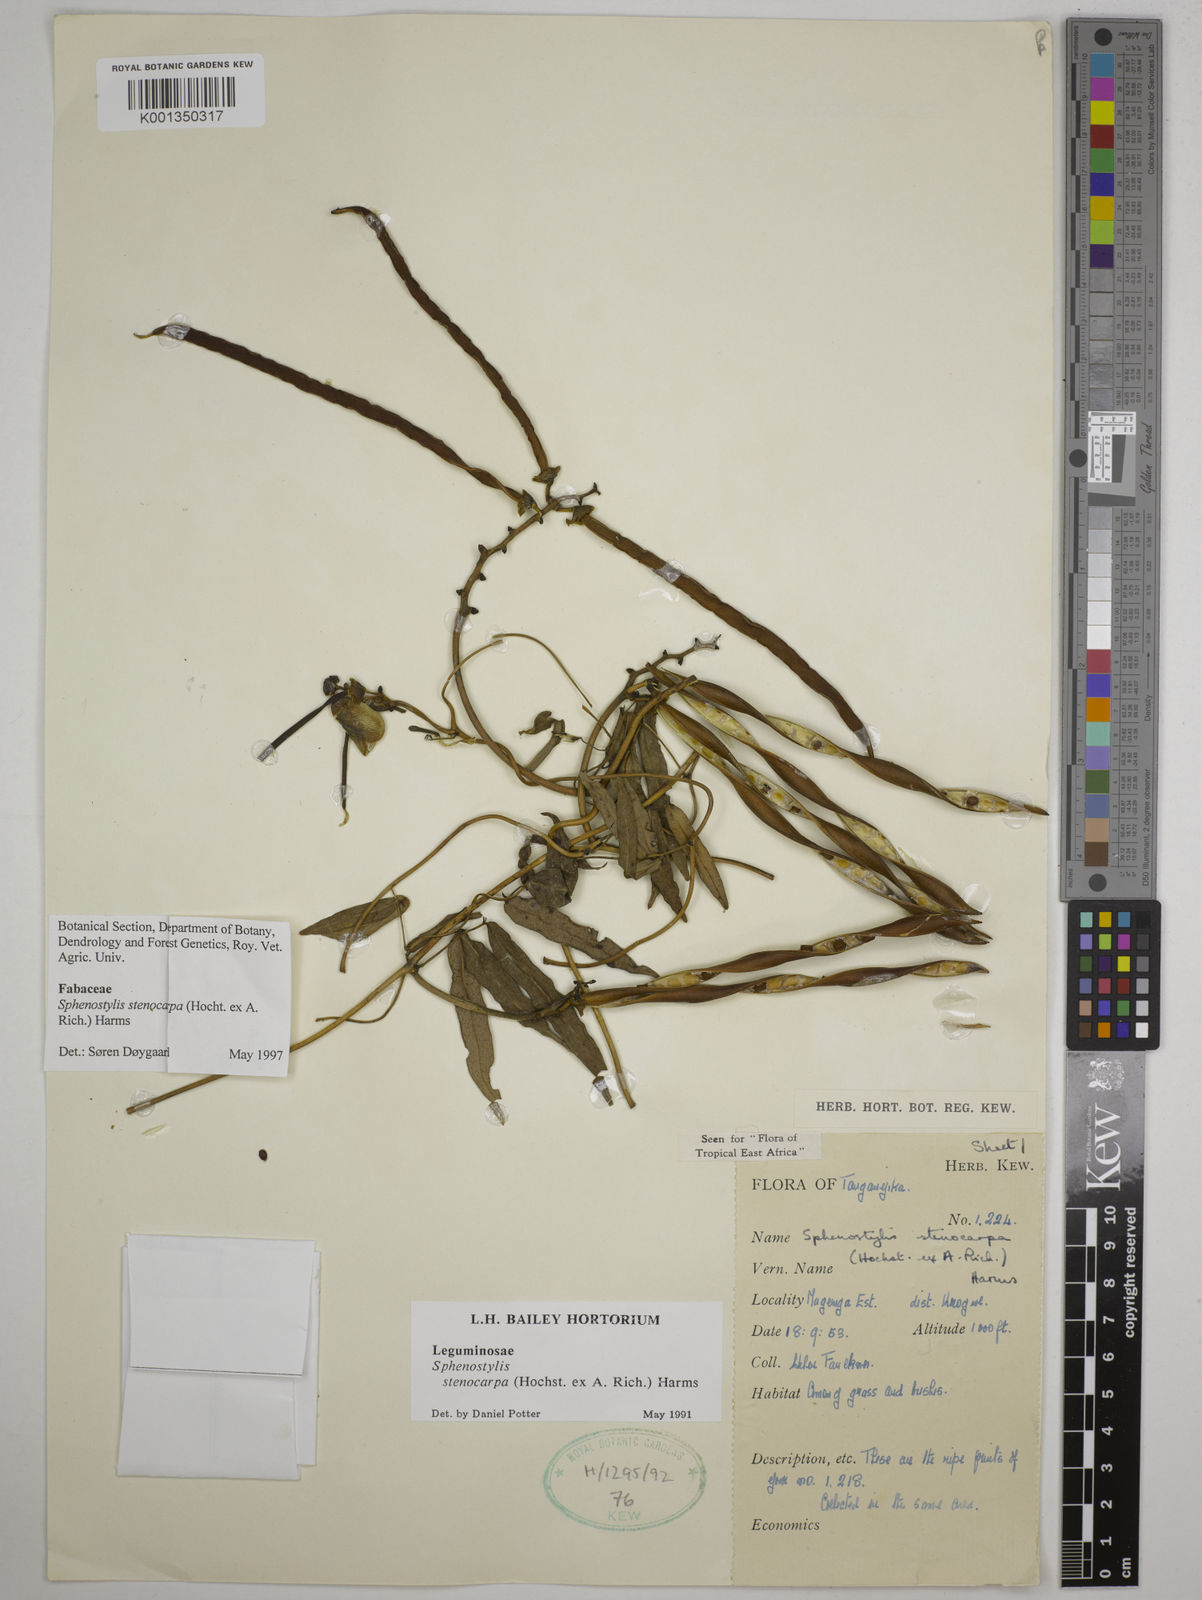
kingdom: Plantae
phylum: Tracheophyta
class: Magnoliopsida
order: Fabales
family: Fabaceae
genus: Sphenostylis
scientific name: Sphenostylis stenocarpa
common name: Yam-pea
